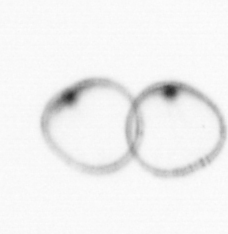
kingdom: Chromista
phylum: Myzozoa
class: Dinophyceae
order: Noctilucales
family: Noctilucaceae
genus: Noctiluca
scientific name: Noctiluca scintillans
